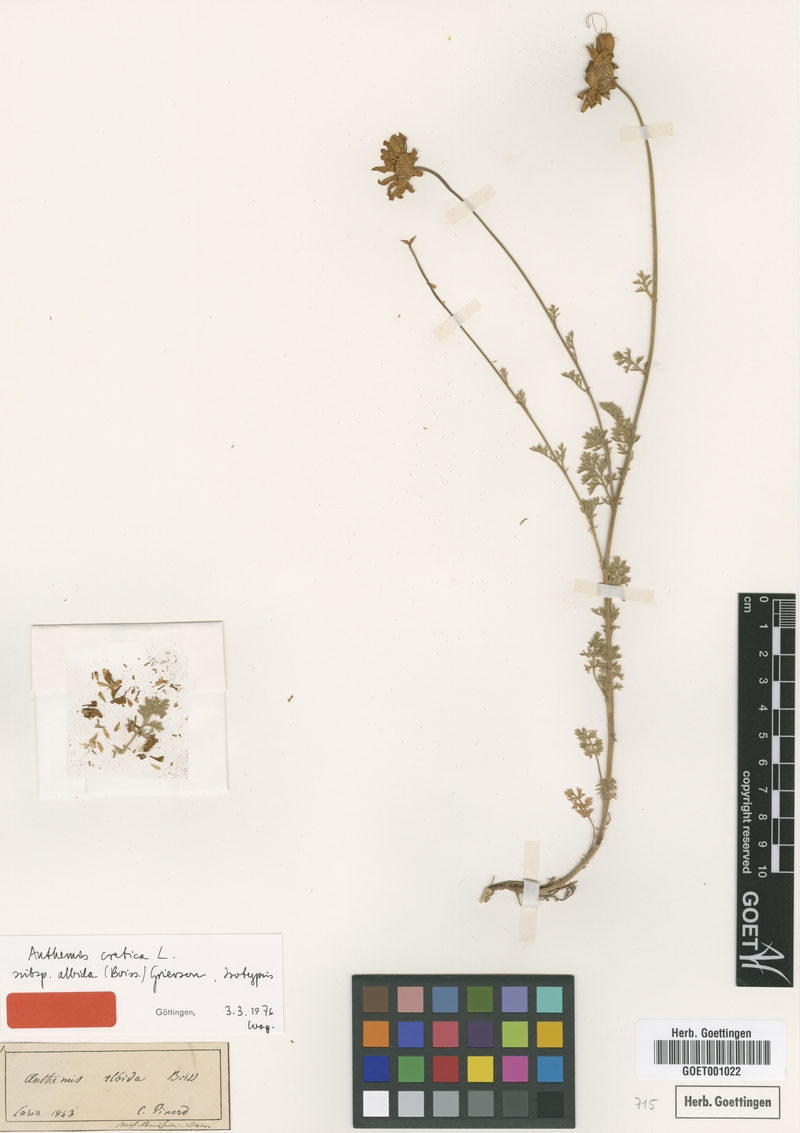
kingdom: Plantae
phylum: Tracheophyta
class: Magnoliopsida
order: Asterales
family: Asteraceae
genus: Anthemis
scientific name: Anthemis cretica
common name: Mountain dog-daisy
